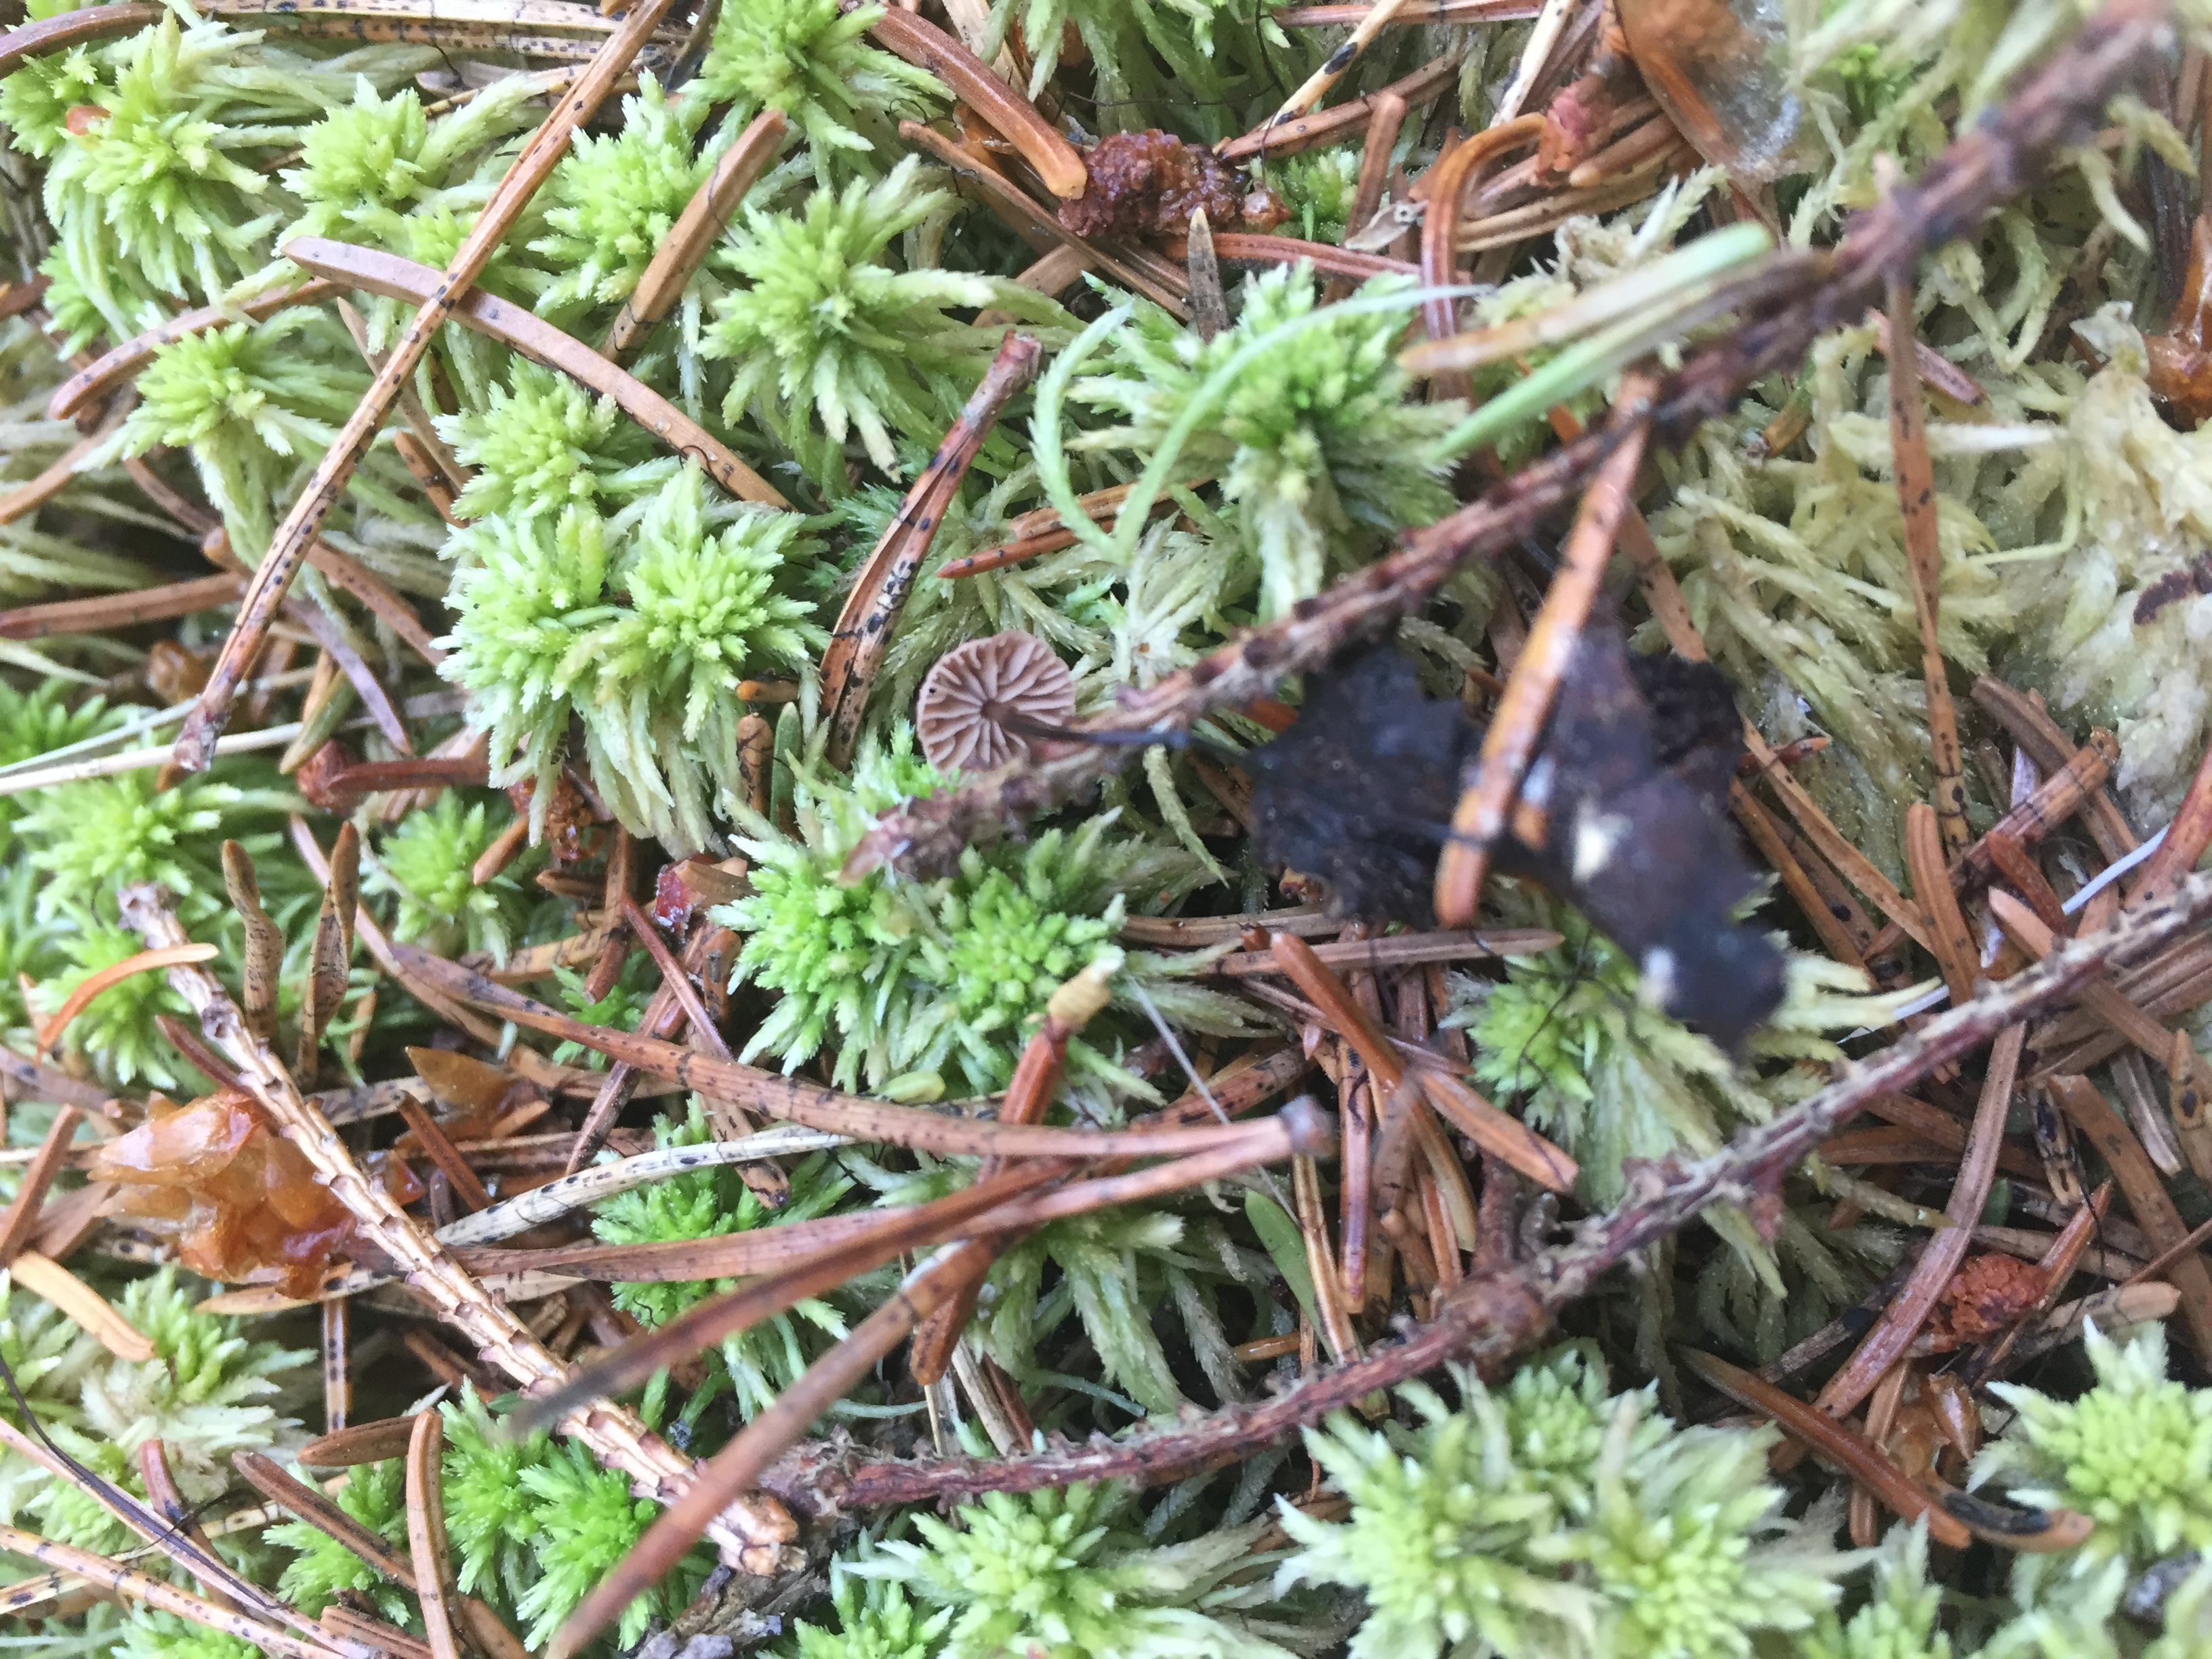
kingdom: Fungi
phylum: Basidiomycota
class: Agaricomycetes
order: Agaricales
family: Omphalotaceae
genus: Gymnopus
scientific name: Gymnopus androsaceus
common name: Horse-hair fungus
